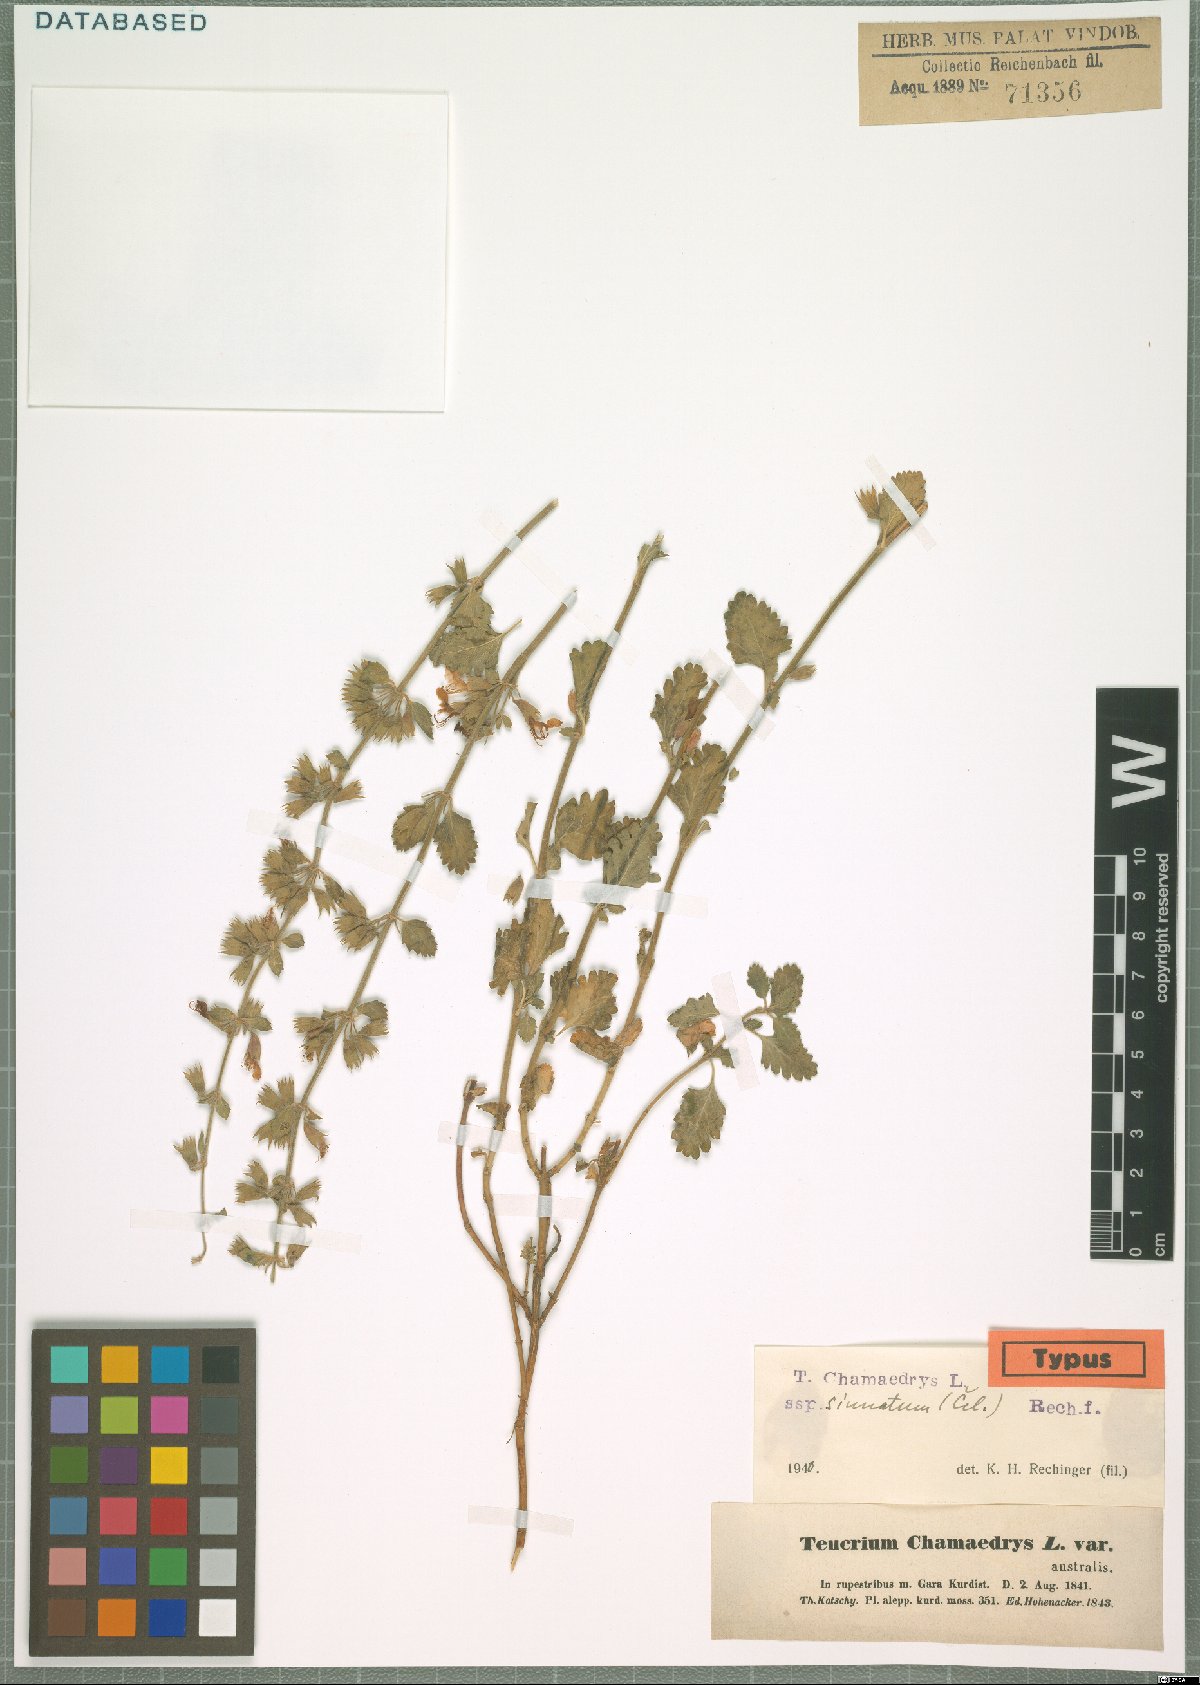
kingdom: Plantae
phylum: Tracheophyta
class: Magnoliopsida
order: Lamiales
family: Lamiaceae
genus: Teucrium
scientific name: Teucrium chamaedrys
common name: Wall germander
